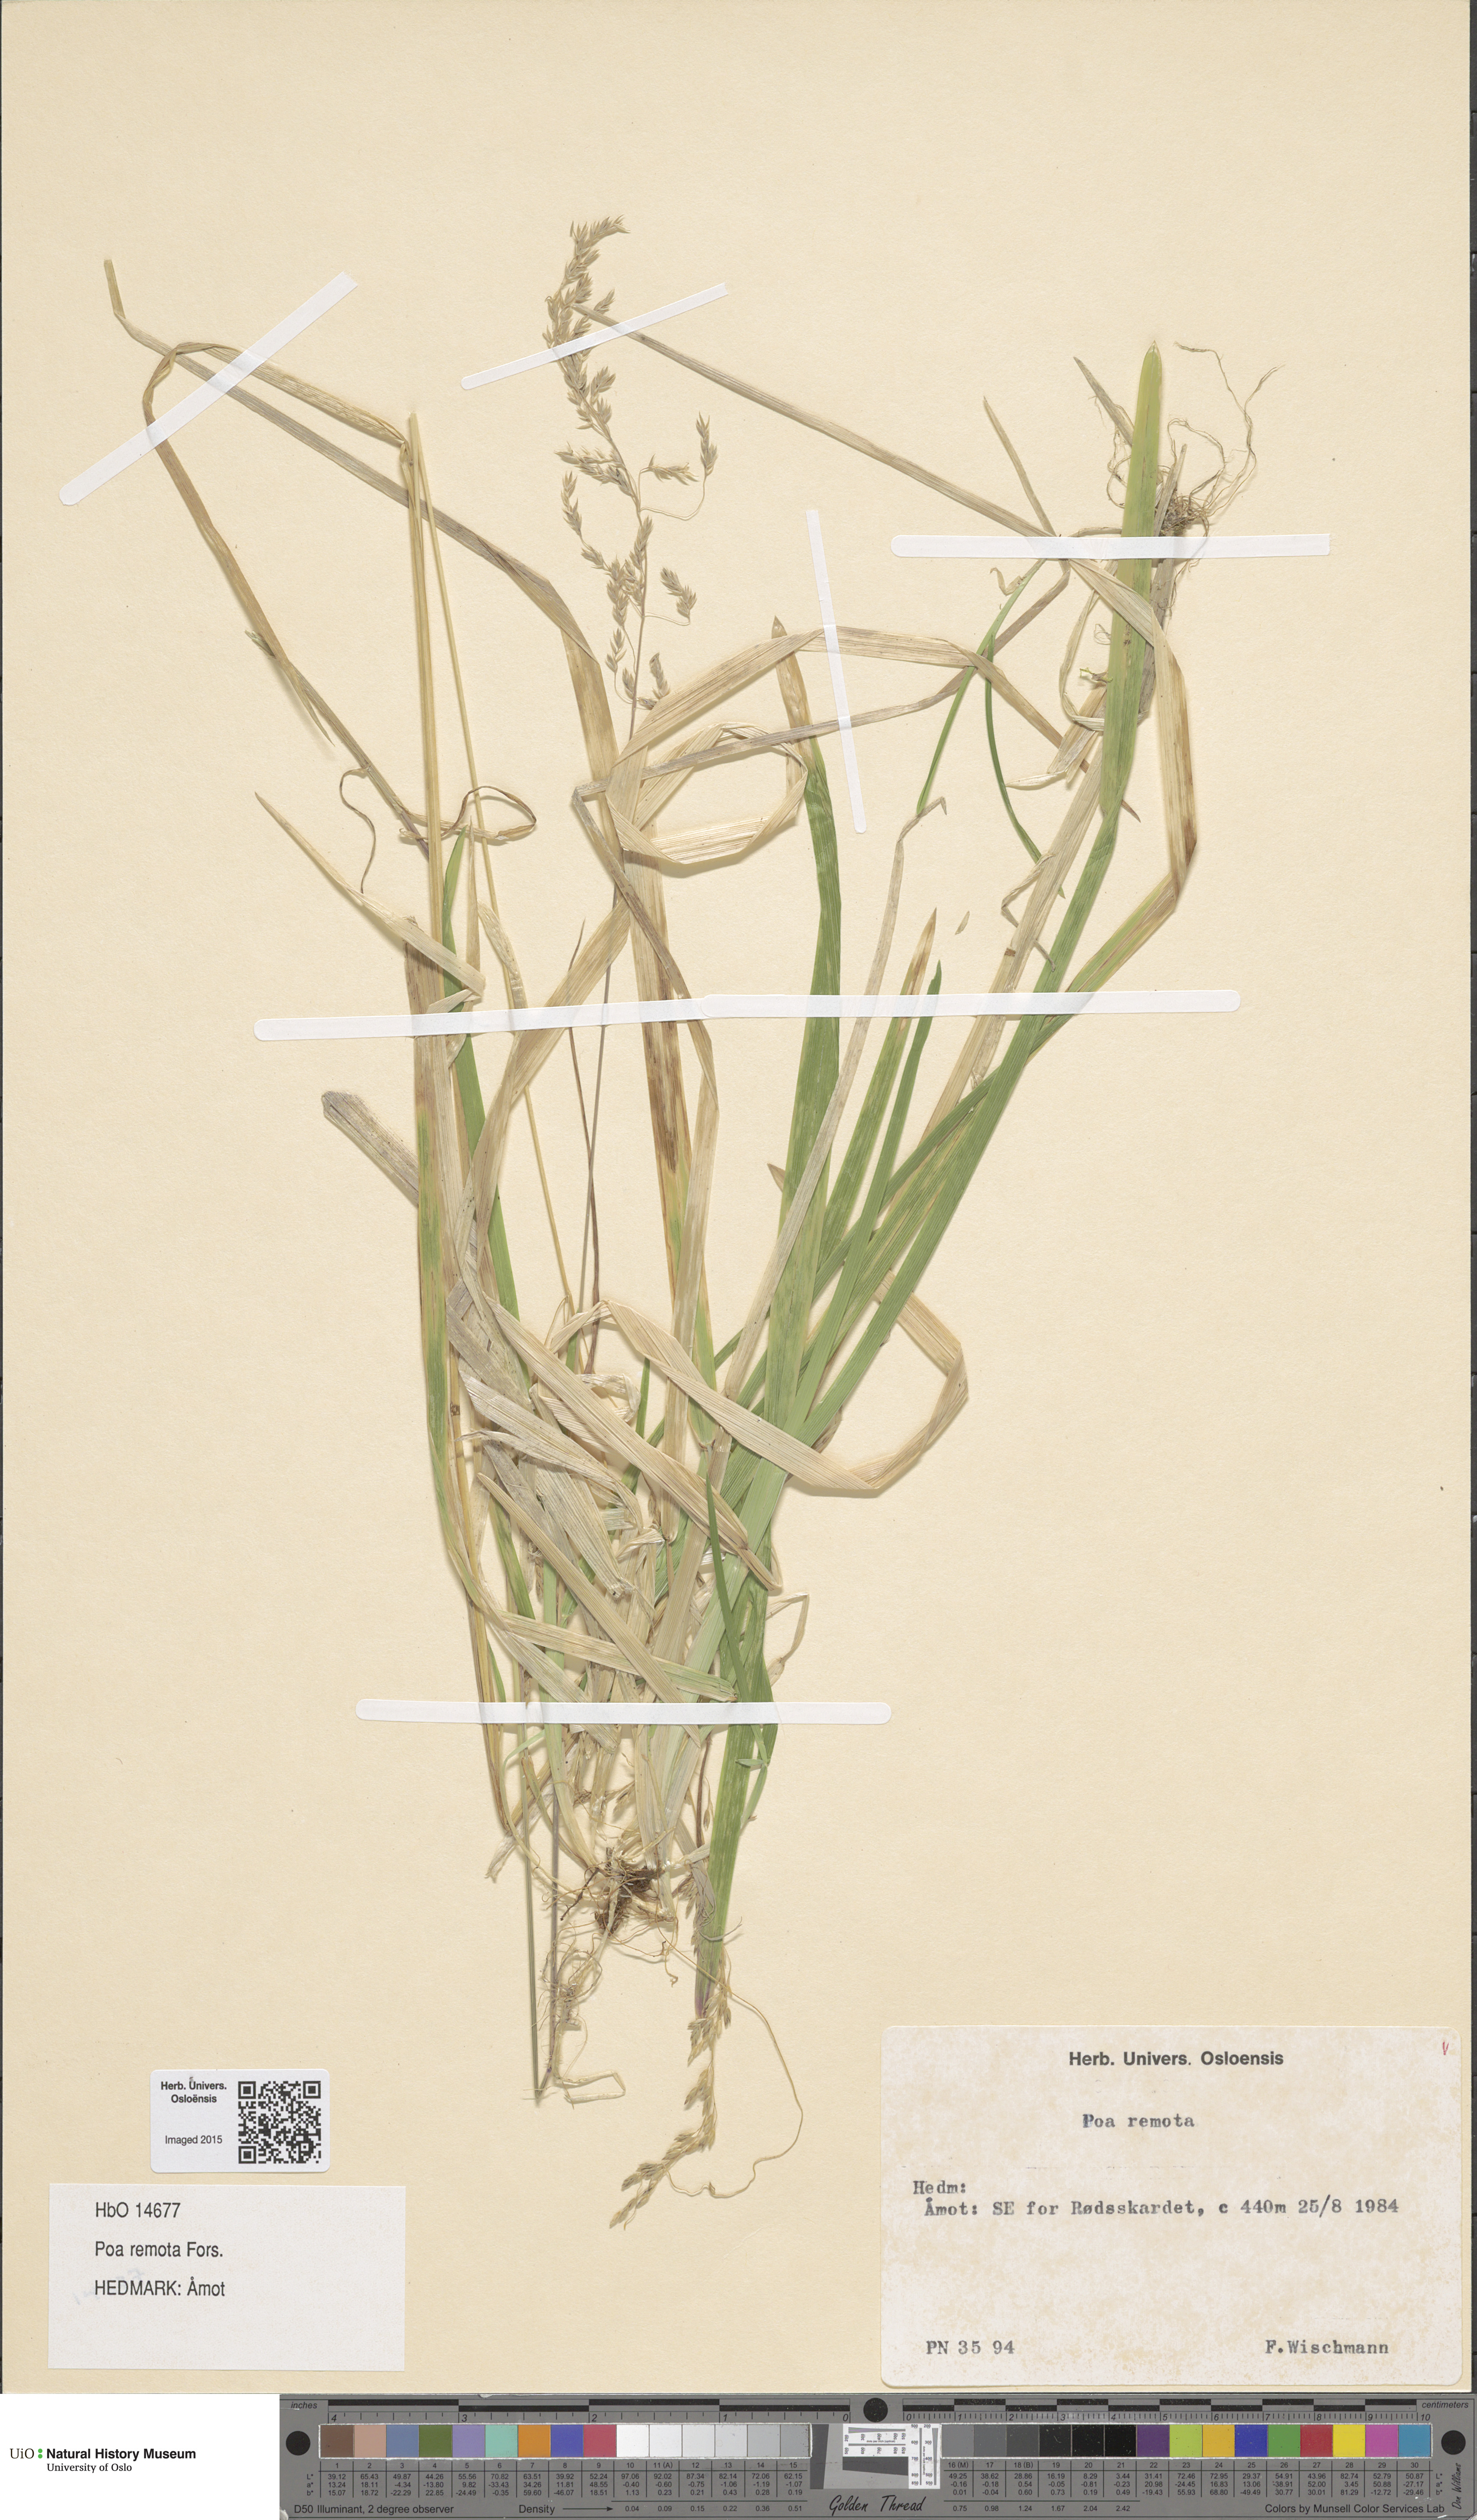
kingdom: Plantae
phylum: Tracheophyta
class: Liliopsida
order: Poales
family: Poaceae
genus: Poa
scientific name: Poa remota
